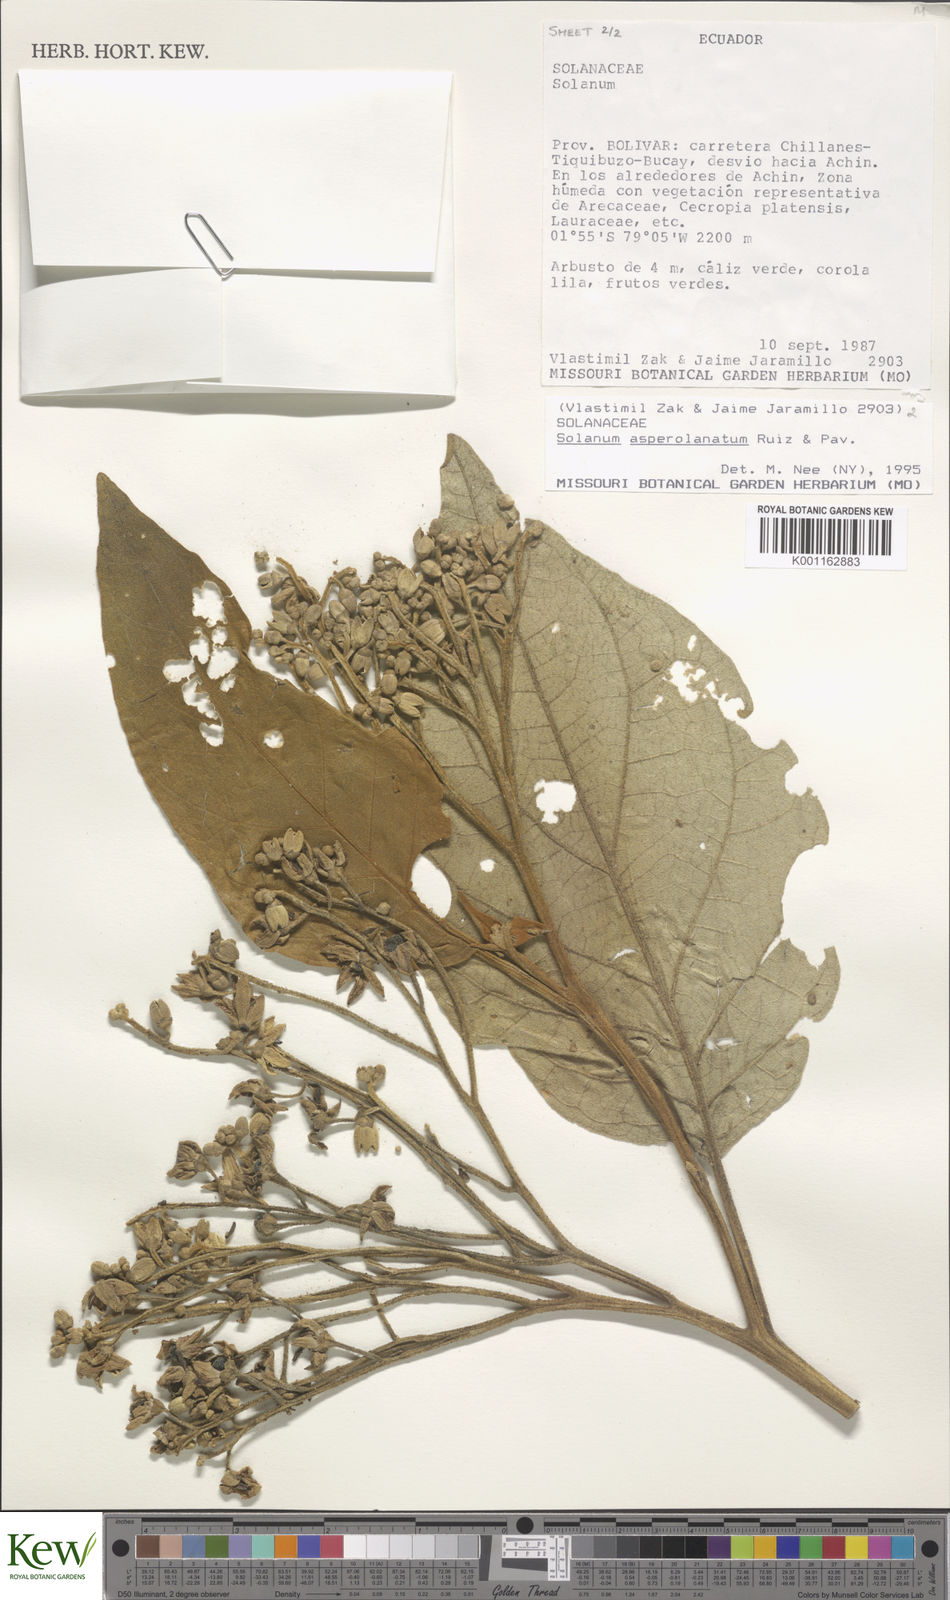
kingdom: Plantae
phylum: Tracheophyta
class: Magnoliopsida
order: Solanales
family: Solanaceae
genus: Solanum
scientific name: Solanum asperolanatum
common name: Devil's-fig
